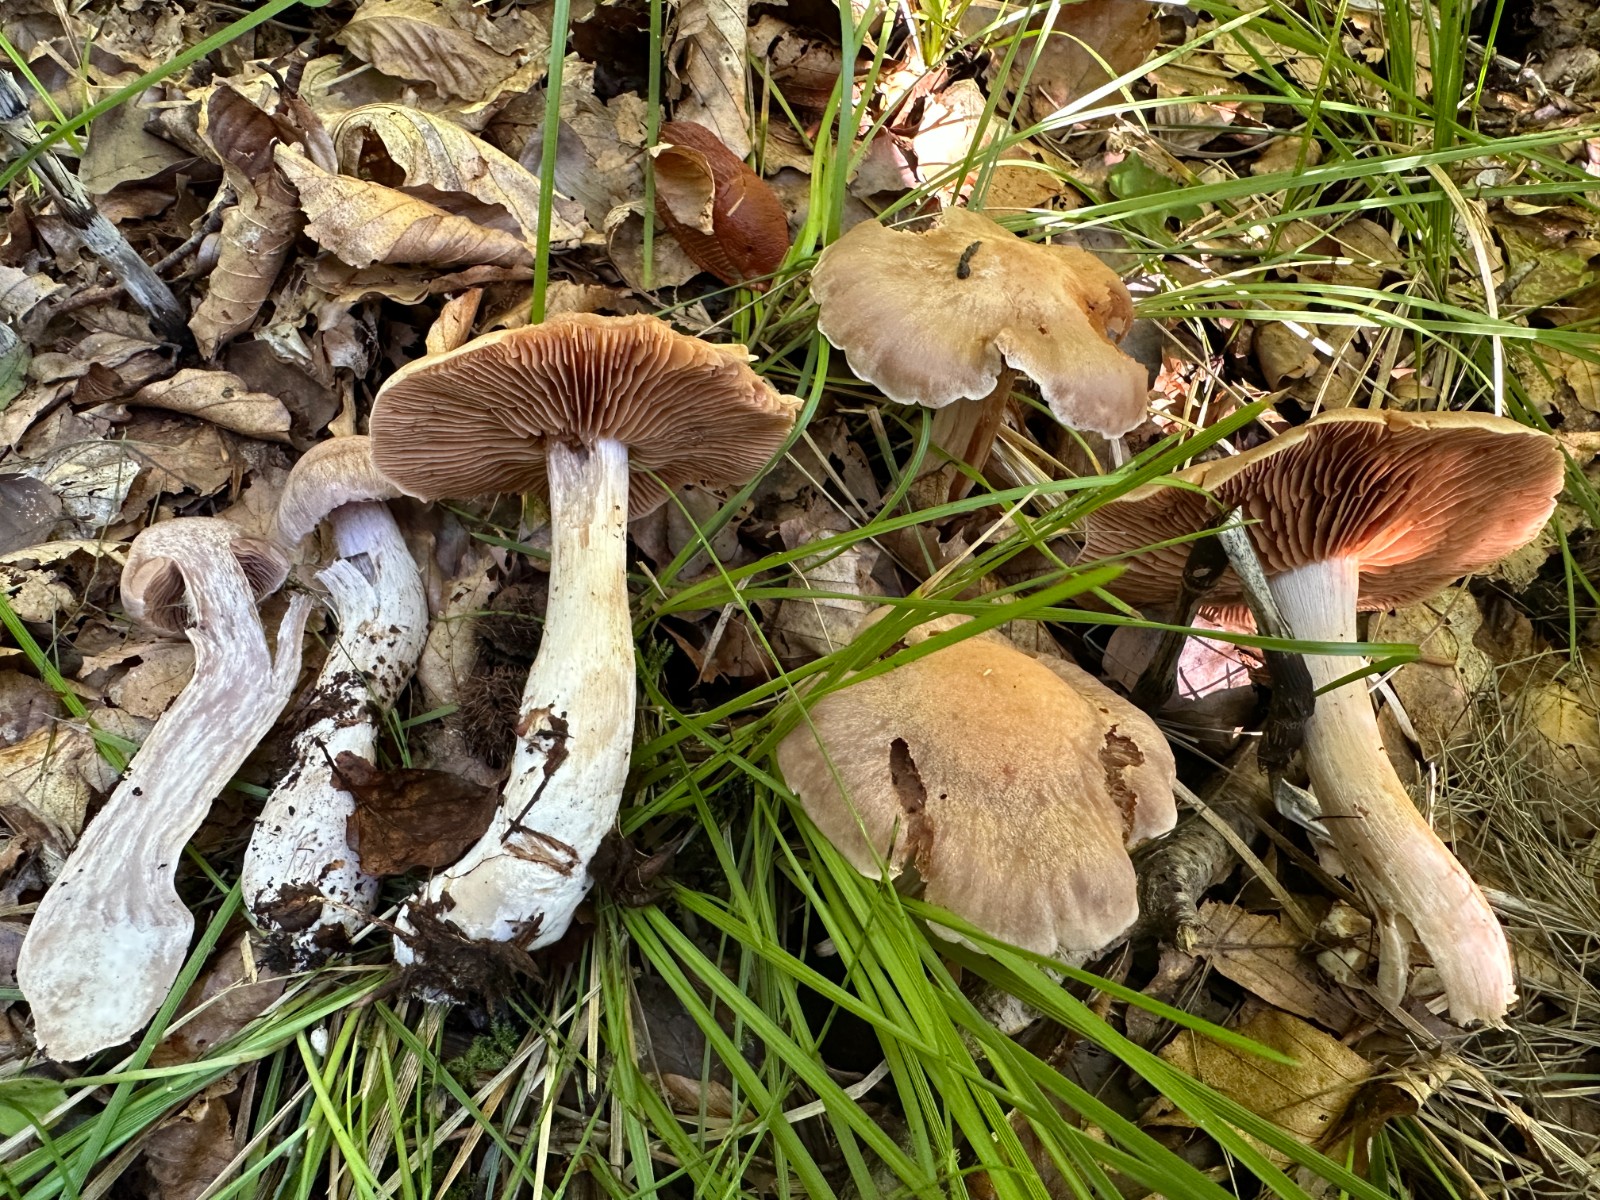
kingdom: Fungi
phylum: Basidiomycota
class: Agaricomycetes
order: Agaricales
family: Cortinariaceae
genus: Cortinarius
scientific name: Cortinarius turgidus
